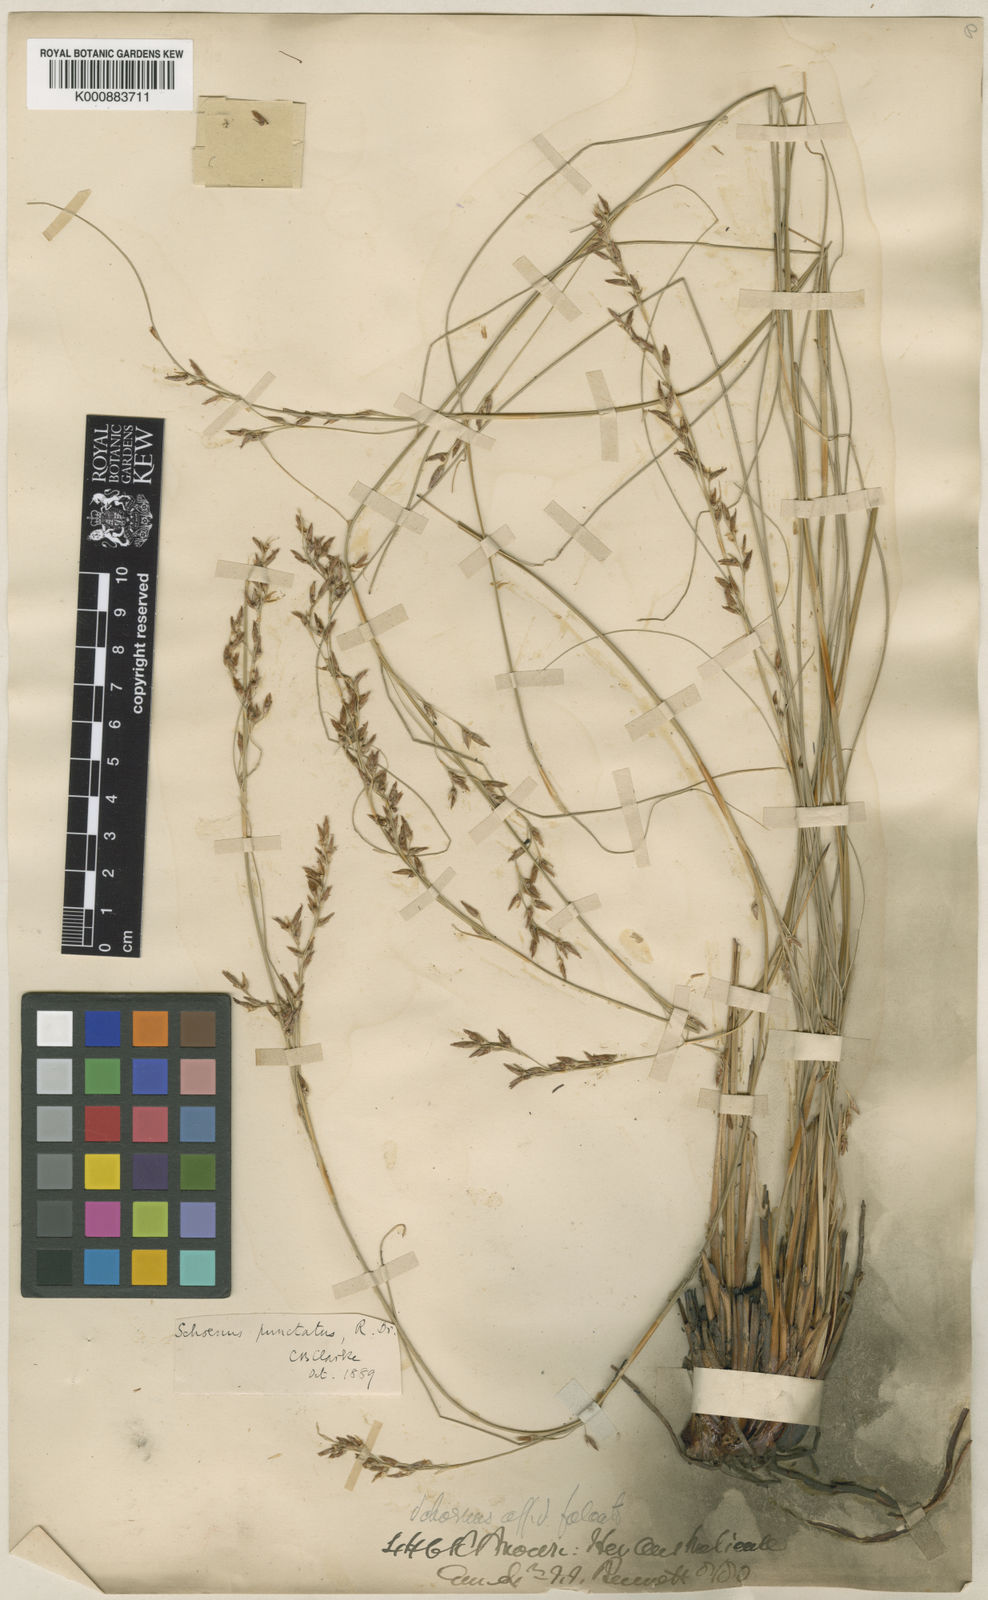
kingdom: Plantae
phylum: Tracheophyta
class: Liliopsida
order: Poales
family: Cyperaceae
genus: Schoenus
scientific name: Schoenus punctatus
